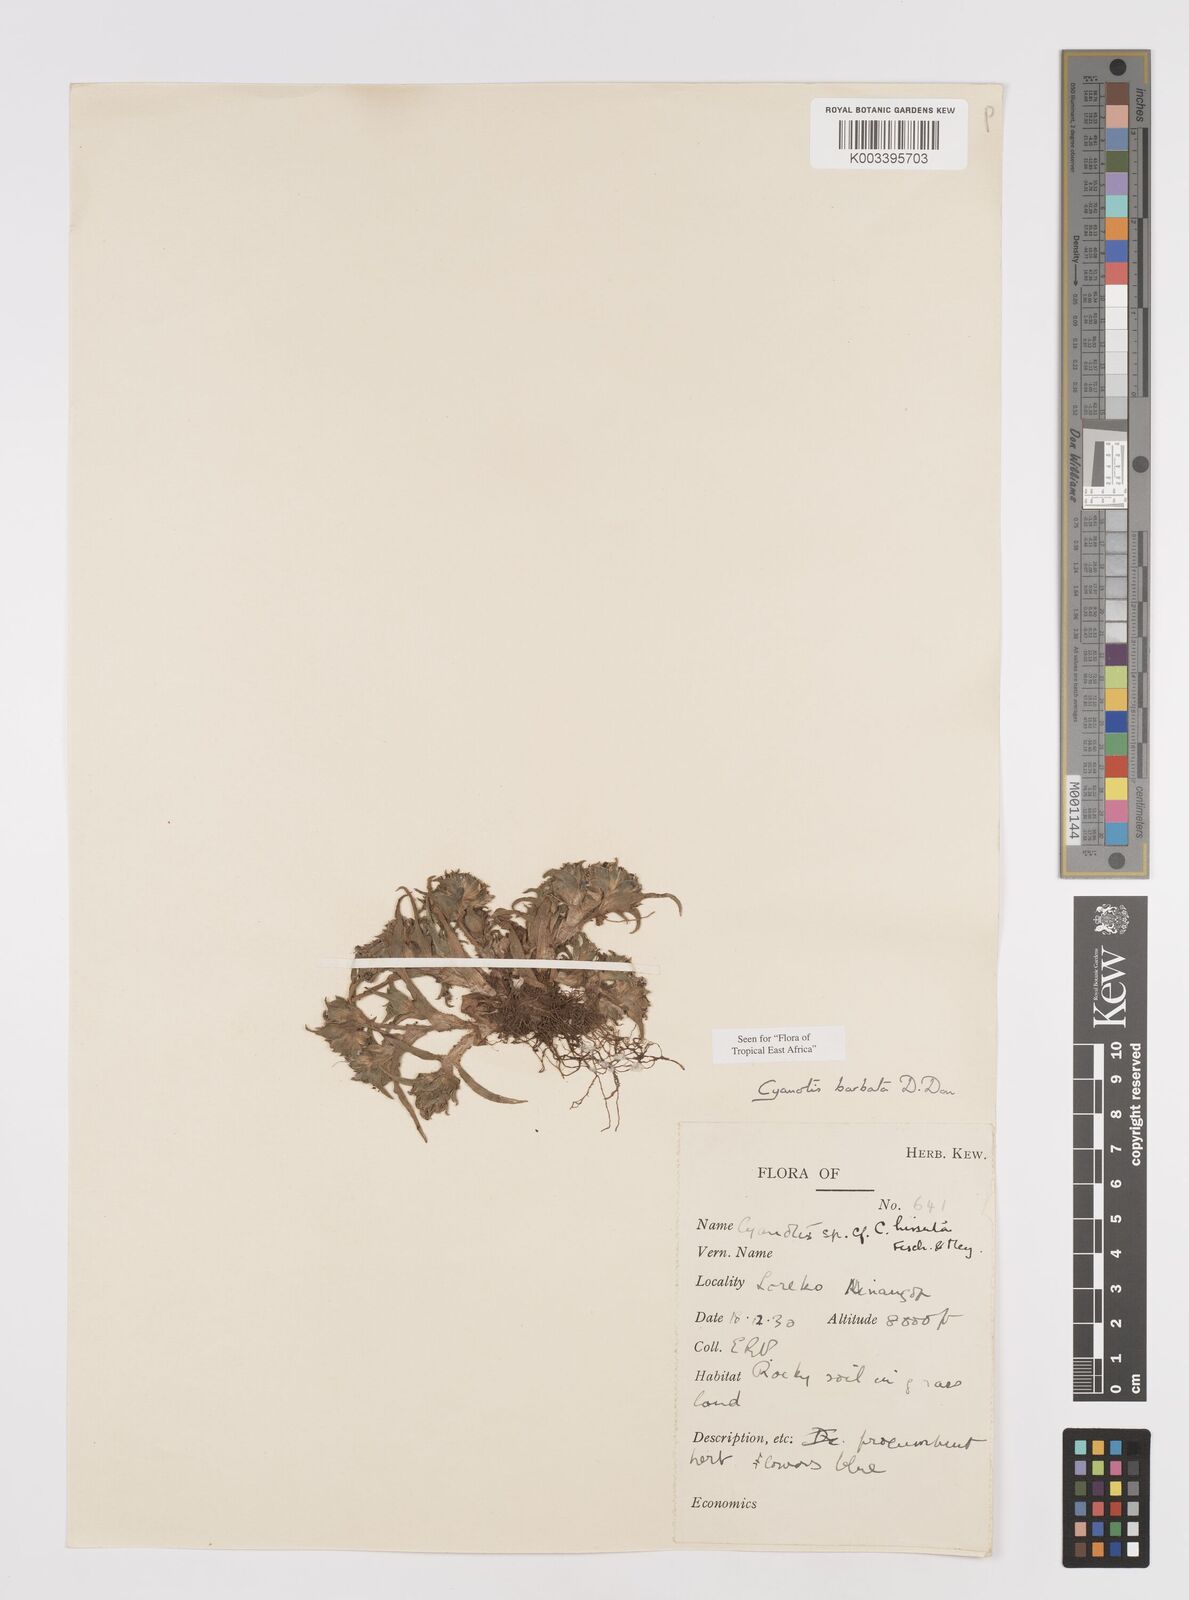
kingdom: Plantae
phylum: Tracheophyta
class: Liliopsida
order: Commelinales
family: Commelinaceae
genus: Cyanotis
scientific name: Cyanotis vaga
